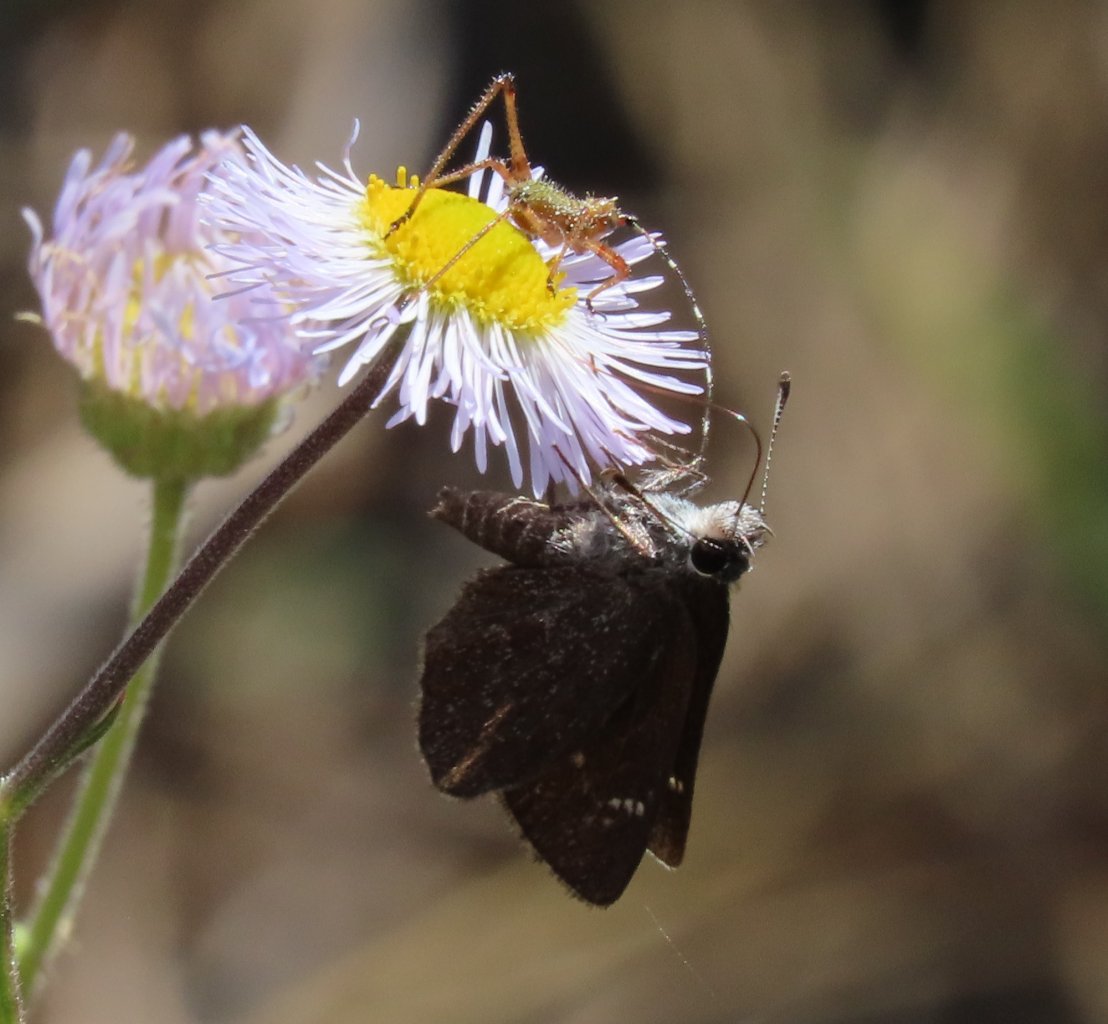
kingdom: Animalia
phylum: Arthropoda
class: Insecta
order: Lepidoptera
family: Hesperiidae
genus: Mastor
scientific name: Mastor alternata
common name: Dusky Roadside-Skipper
